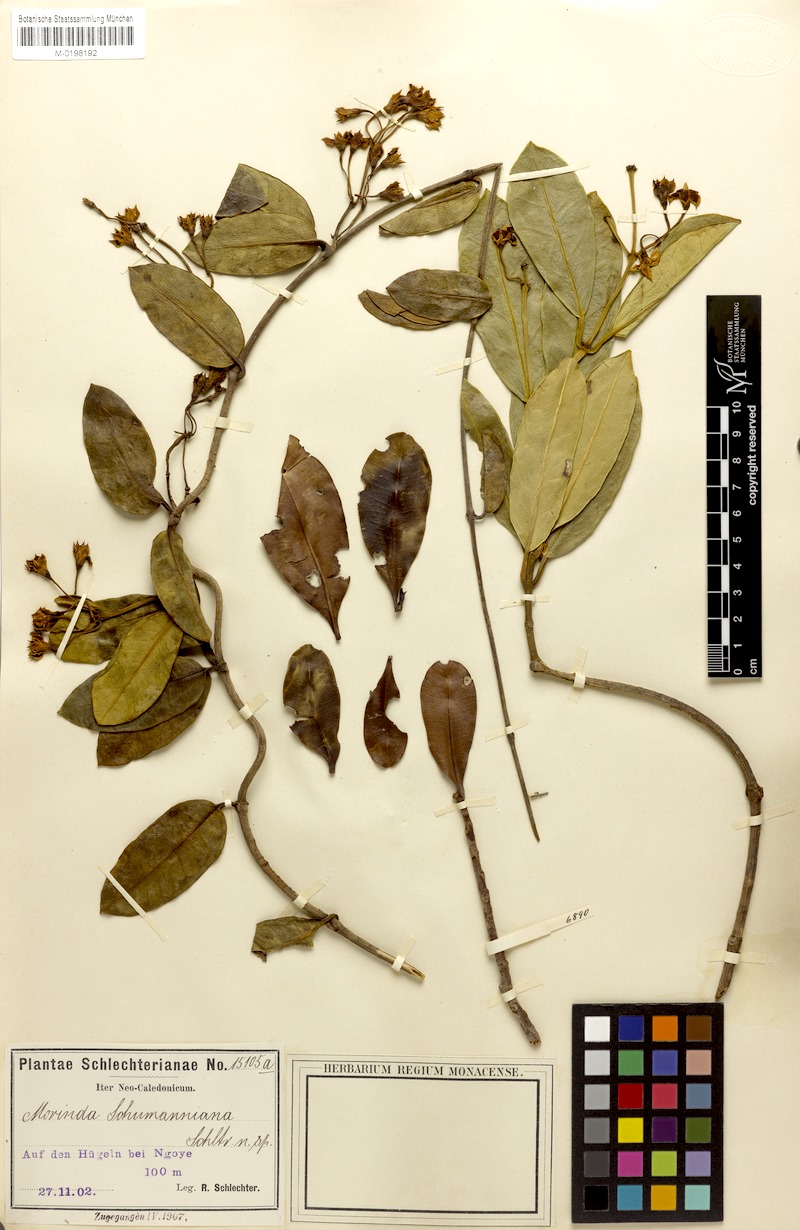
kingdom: Plantae
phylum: Tracheophyta
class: Magnoliopsida
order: Gentianales
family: Rubiaceae
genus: Gynochthodes
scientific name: Gynochthodes glaucescens
